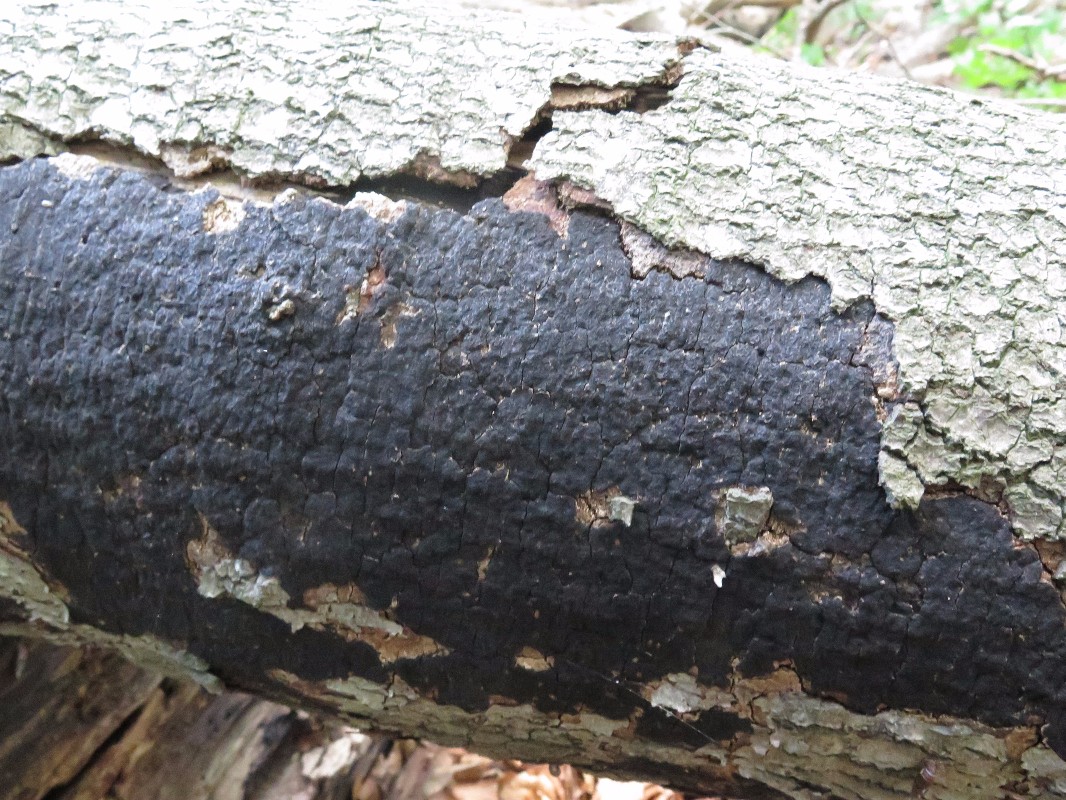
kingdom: Fungi
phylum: Ascomycota
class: Sordariomycetes
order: Xylariales
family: Diatrypaceae
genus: Eutypa
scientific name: Eutypa spinosa
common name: grov kulskorpe
